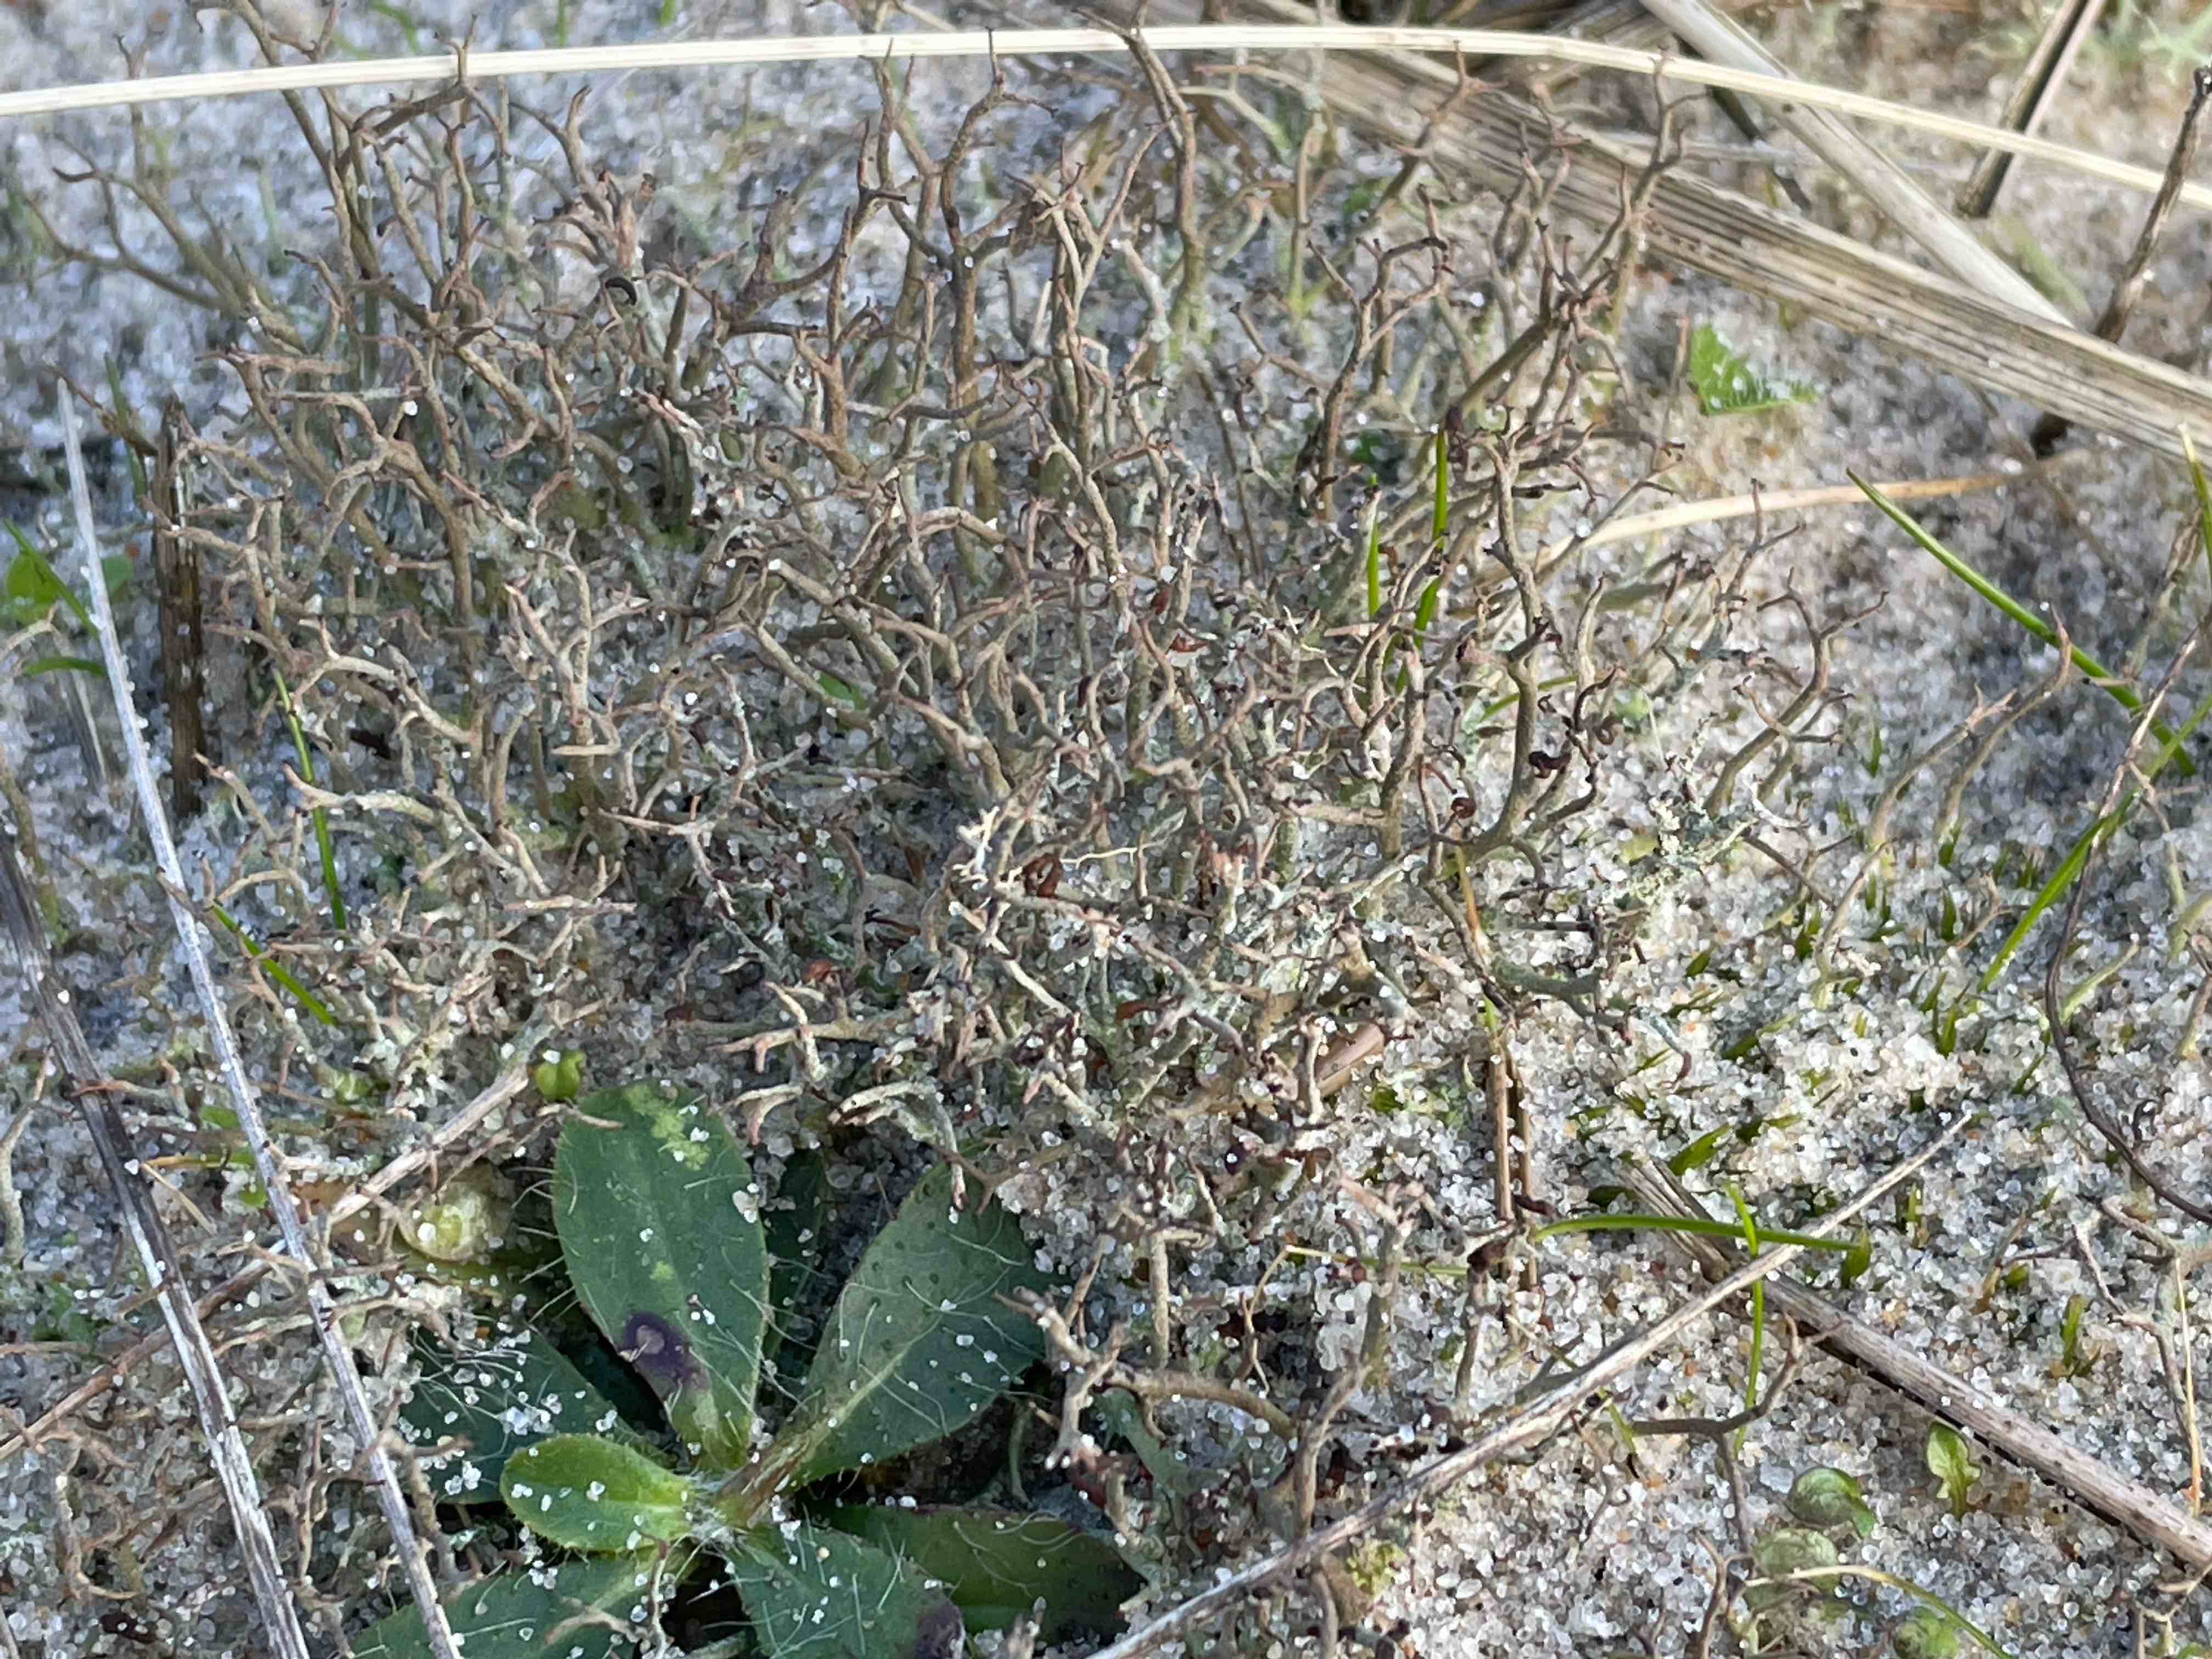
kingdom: Fungi
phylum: Ascomycota
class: Lecanoromycetes
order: Lecanorales
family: Cladoniaceae
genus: Cladonia
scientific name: Cladonia furcata
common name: kløftet bægerlav
